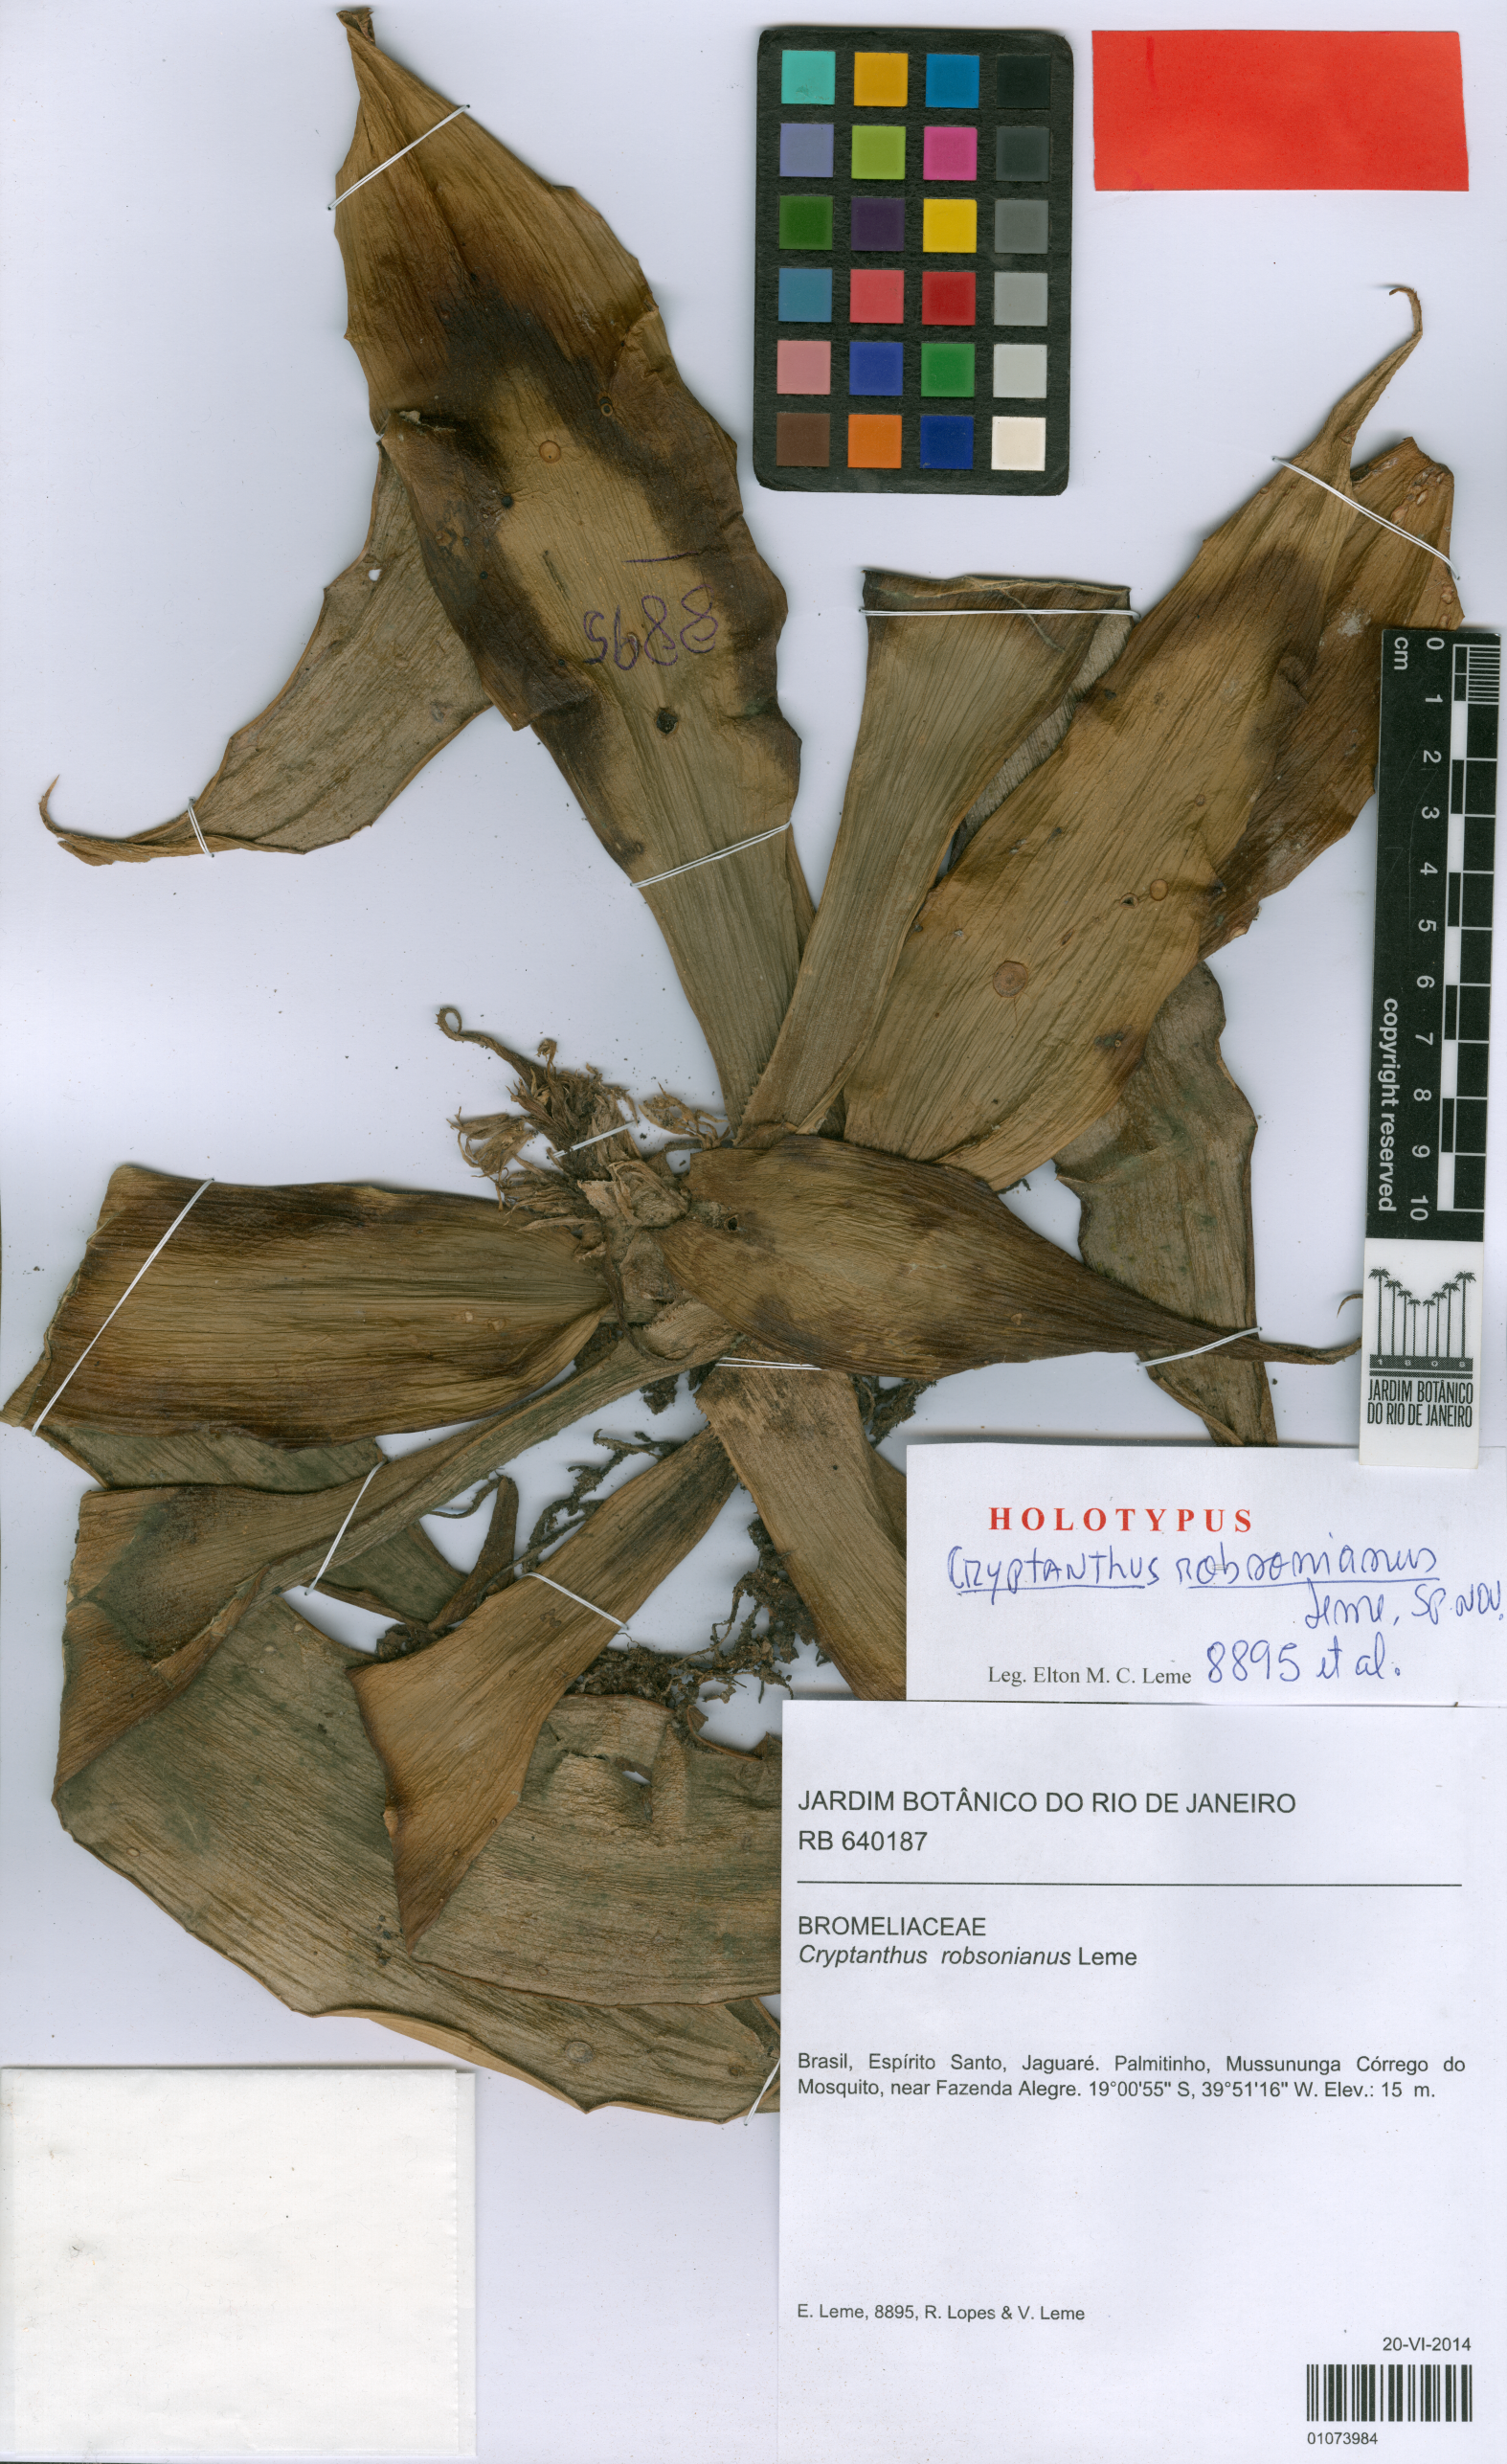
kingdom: Plantae
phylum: Tracheophyta
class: Liliopsida
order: Poales
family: Bromeliaceae
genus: Cryptanthus
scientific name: Cryptanthus robsonianus
